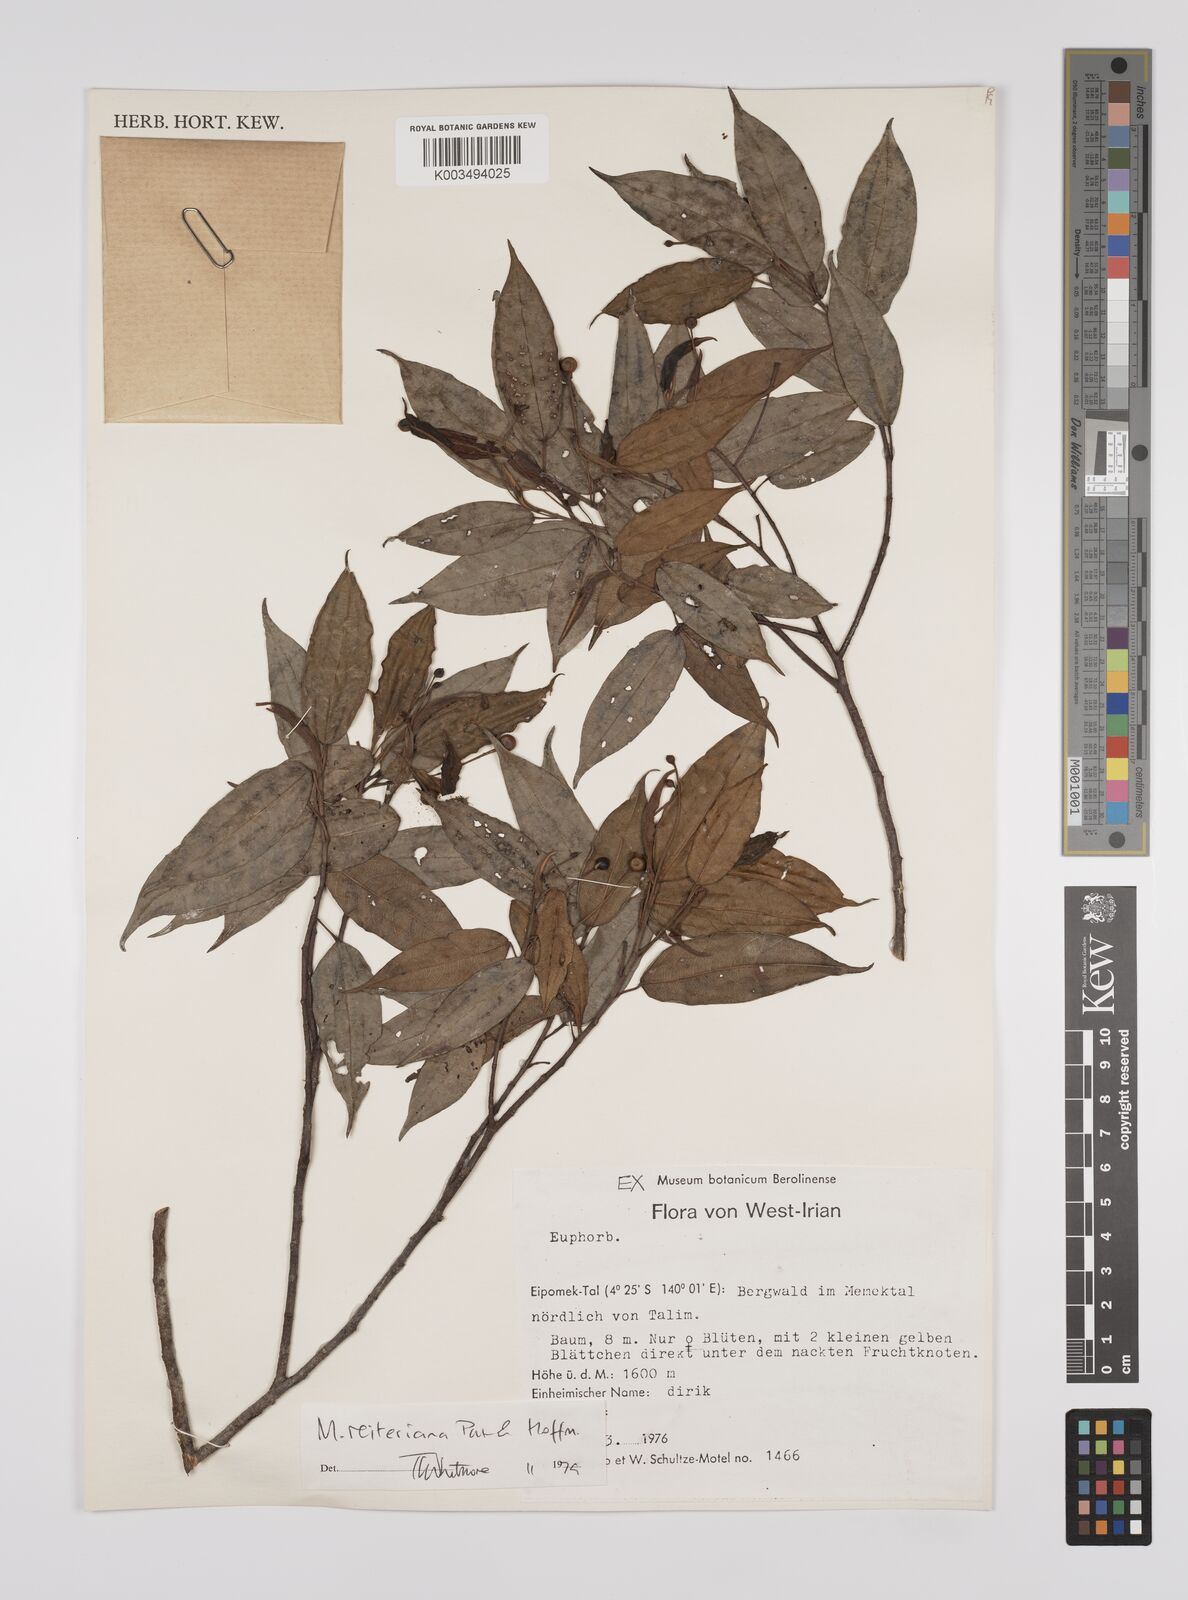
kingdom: Plantae
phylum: Tracheophyta
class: Magnoliopsida
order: Malpighiales
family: Euphorbiaceae
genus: Macaranga
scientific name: Macaranga reiteriana
